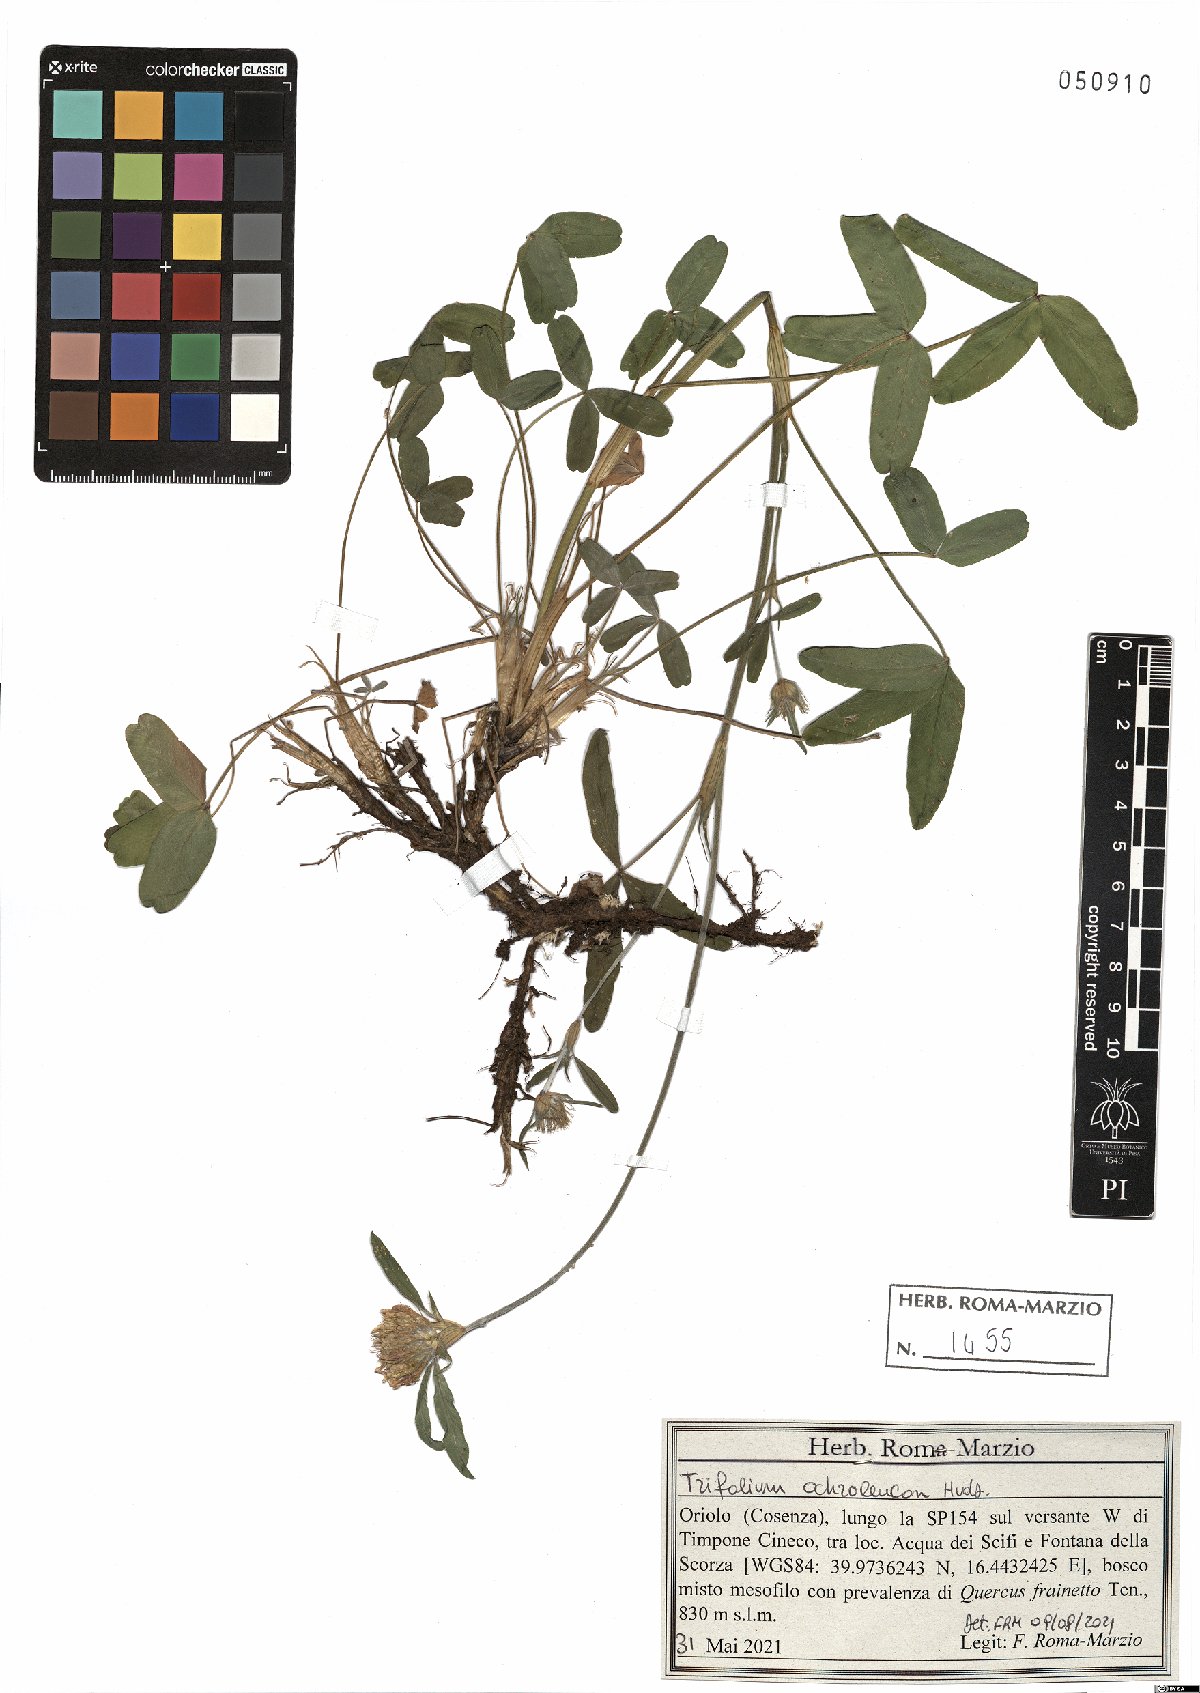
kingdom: Plantae
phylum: Tracheophyta
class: Magnoliopsida
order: Fabales
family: Fabaceae
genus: Trifolium
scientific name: Trifolium ochroleucon
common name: Sulphur clover
